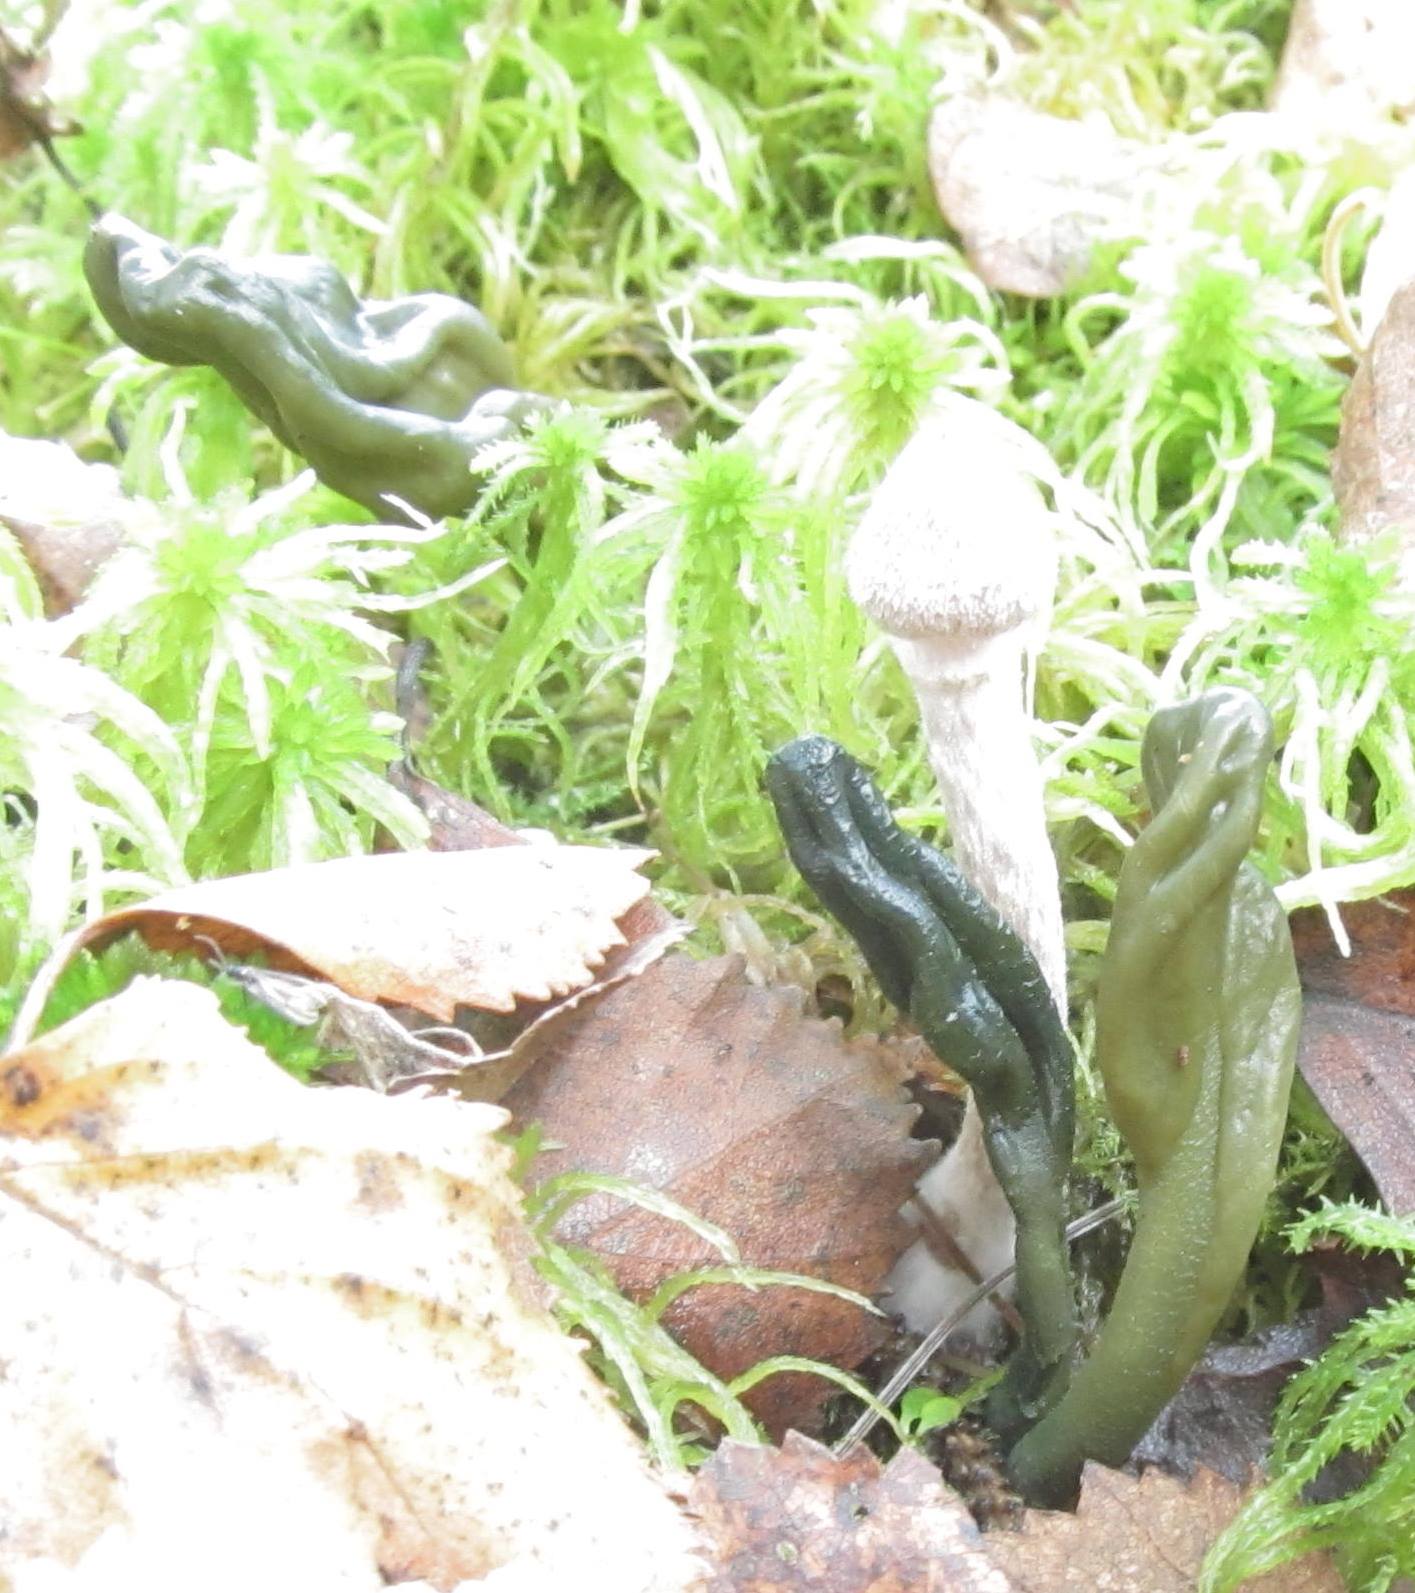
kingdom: Fungi
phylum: Ascomycota
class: Leotiomycetes
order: Leotiales
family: Leotiaceae
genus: Microglossum
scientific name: Microglossum viride
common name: grøn farvetunge
